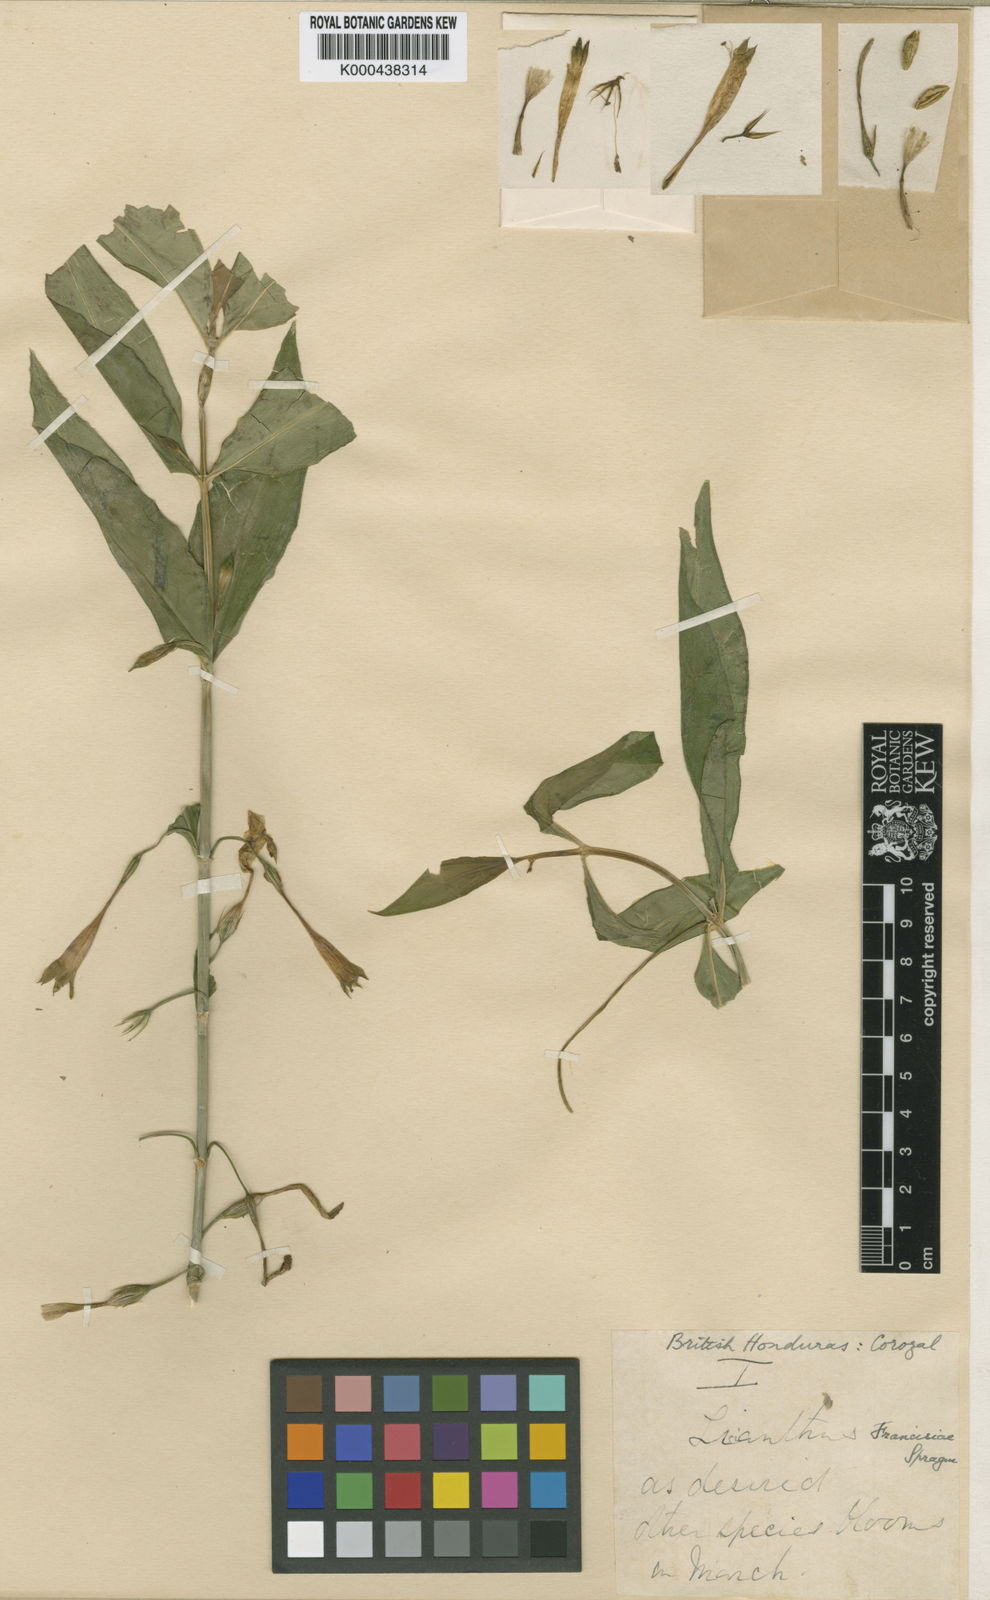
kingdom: Plantae
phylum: Tracheophyta
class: Magnoliopsida
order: Gentianales
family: Gentianaceae
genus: Lisianthus
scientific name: Lisianthus axillaris
